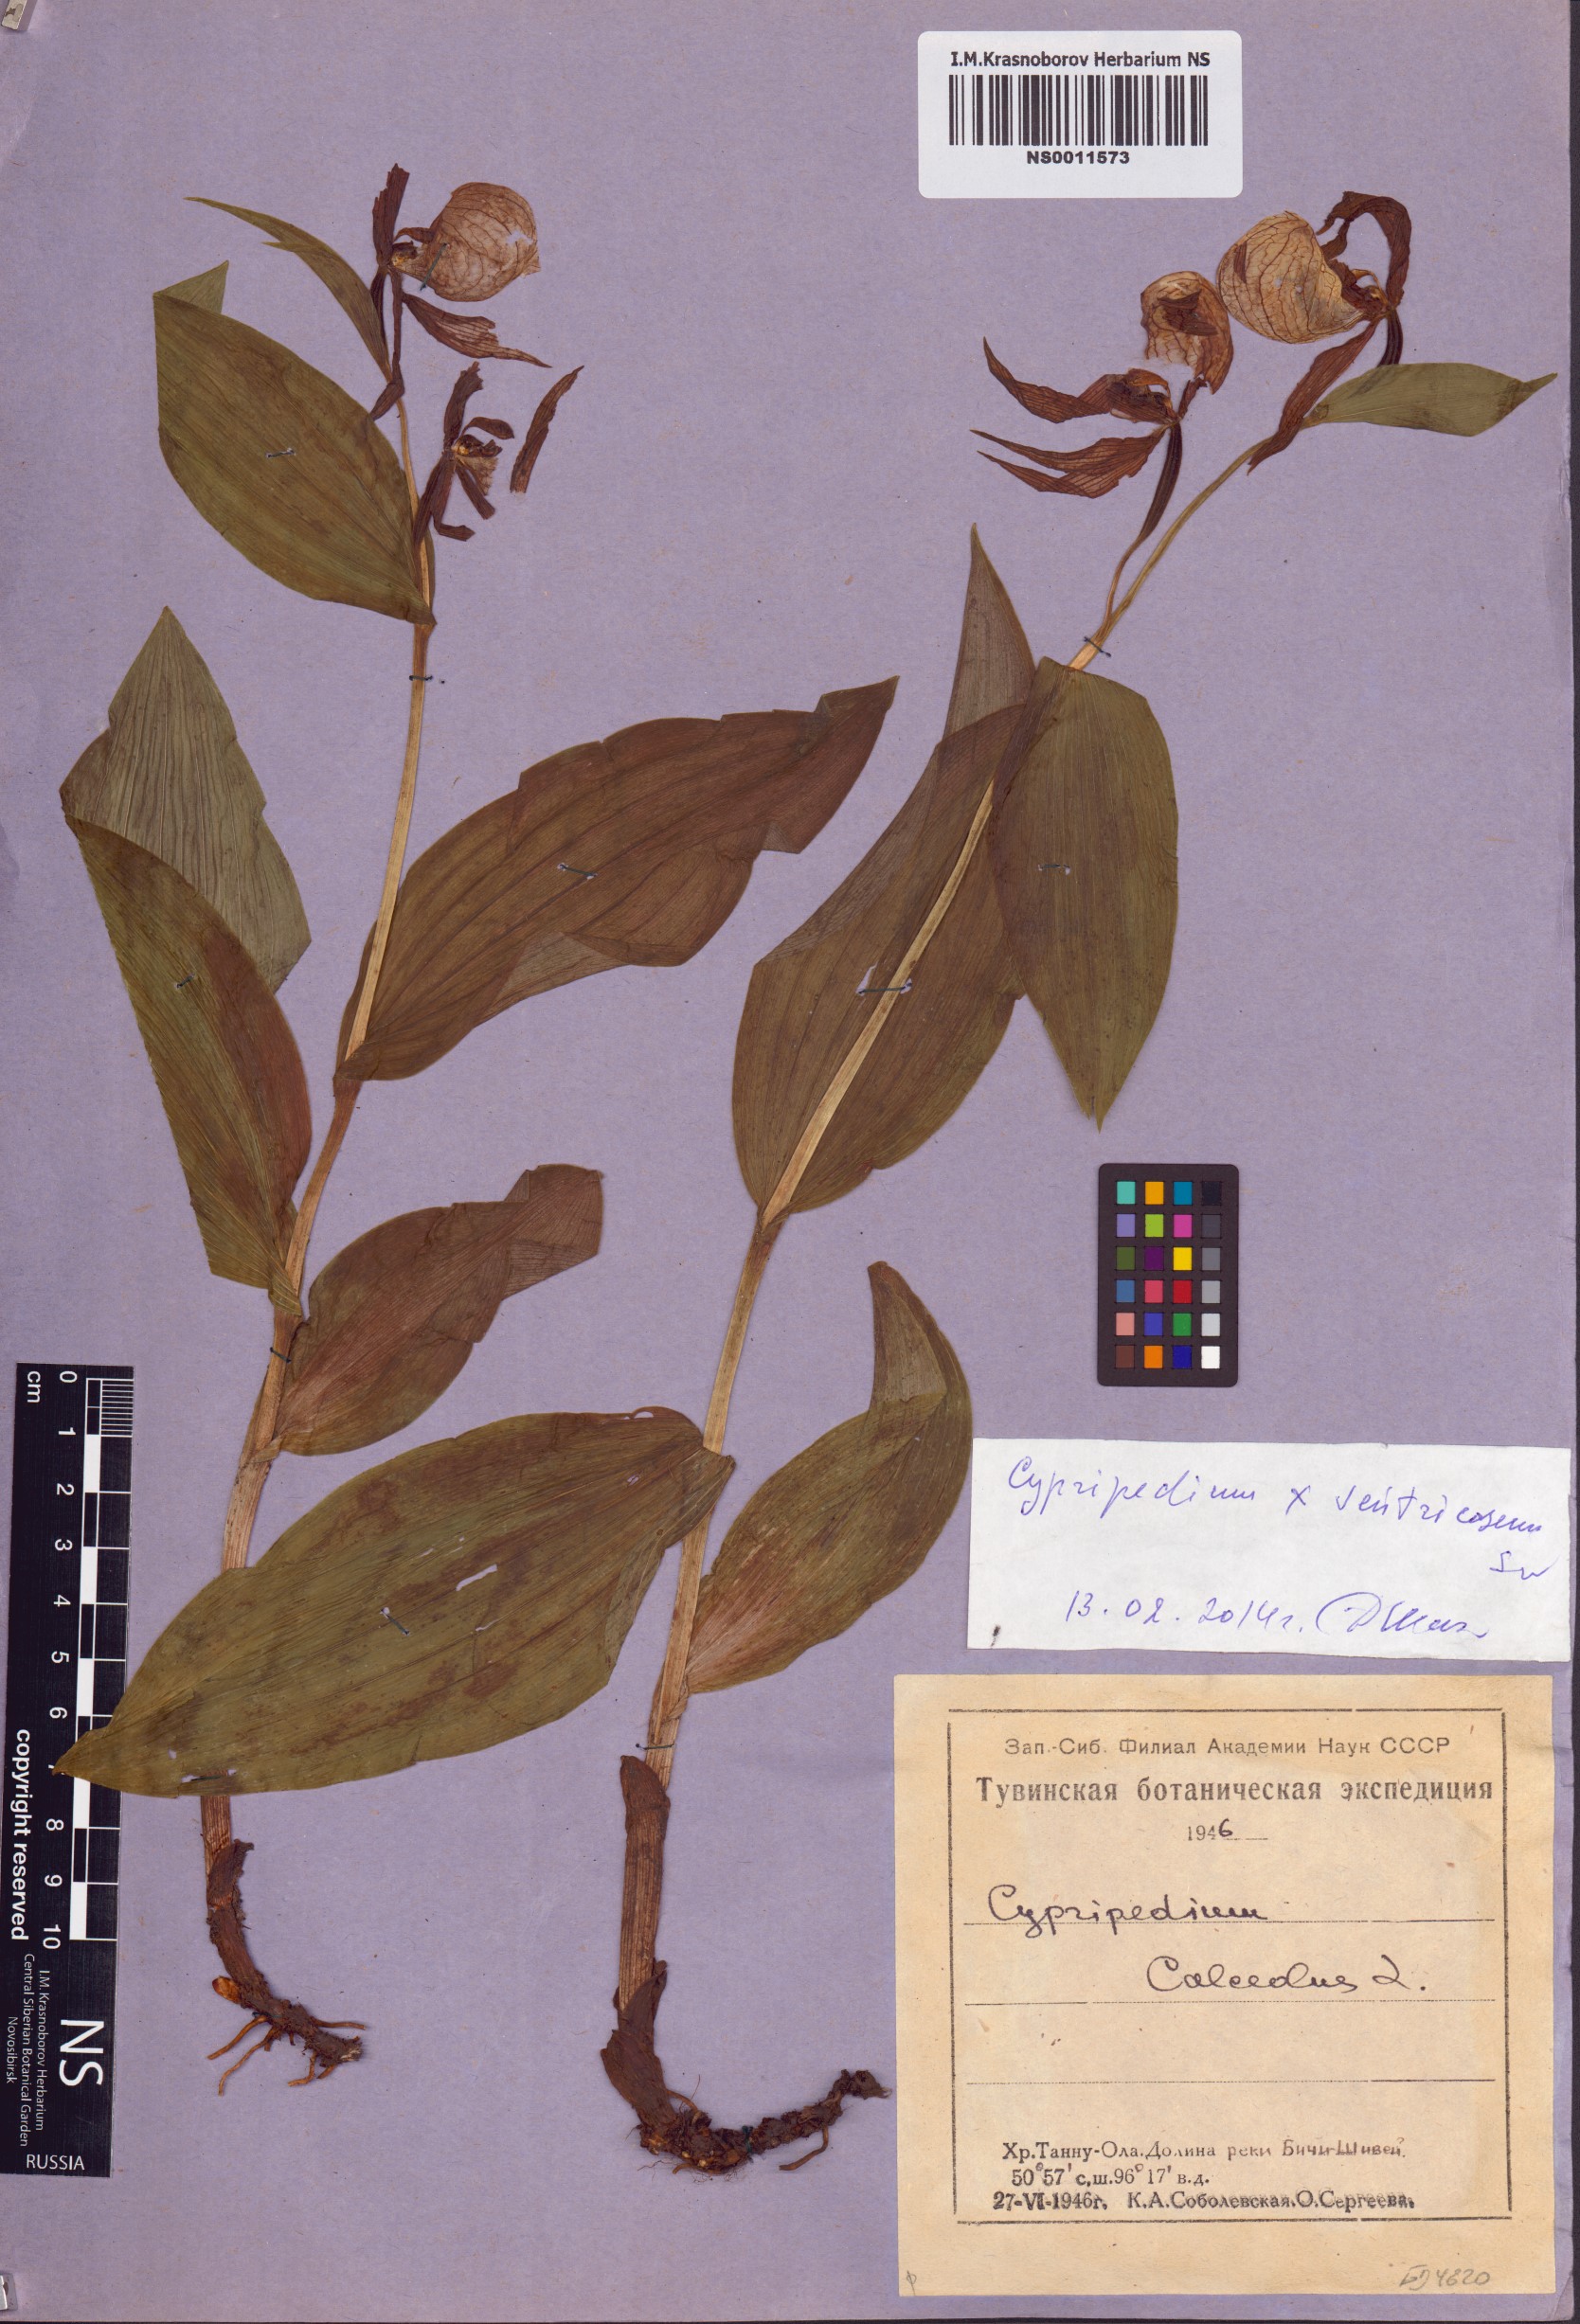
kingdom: Plantae
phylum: Tracheophyta
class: Liliopsida
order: Asparagales
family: Orchidaceae
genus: Cypripedium
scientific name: Cypripedium ventricosum
